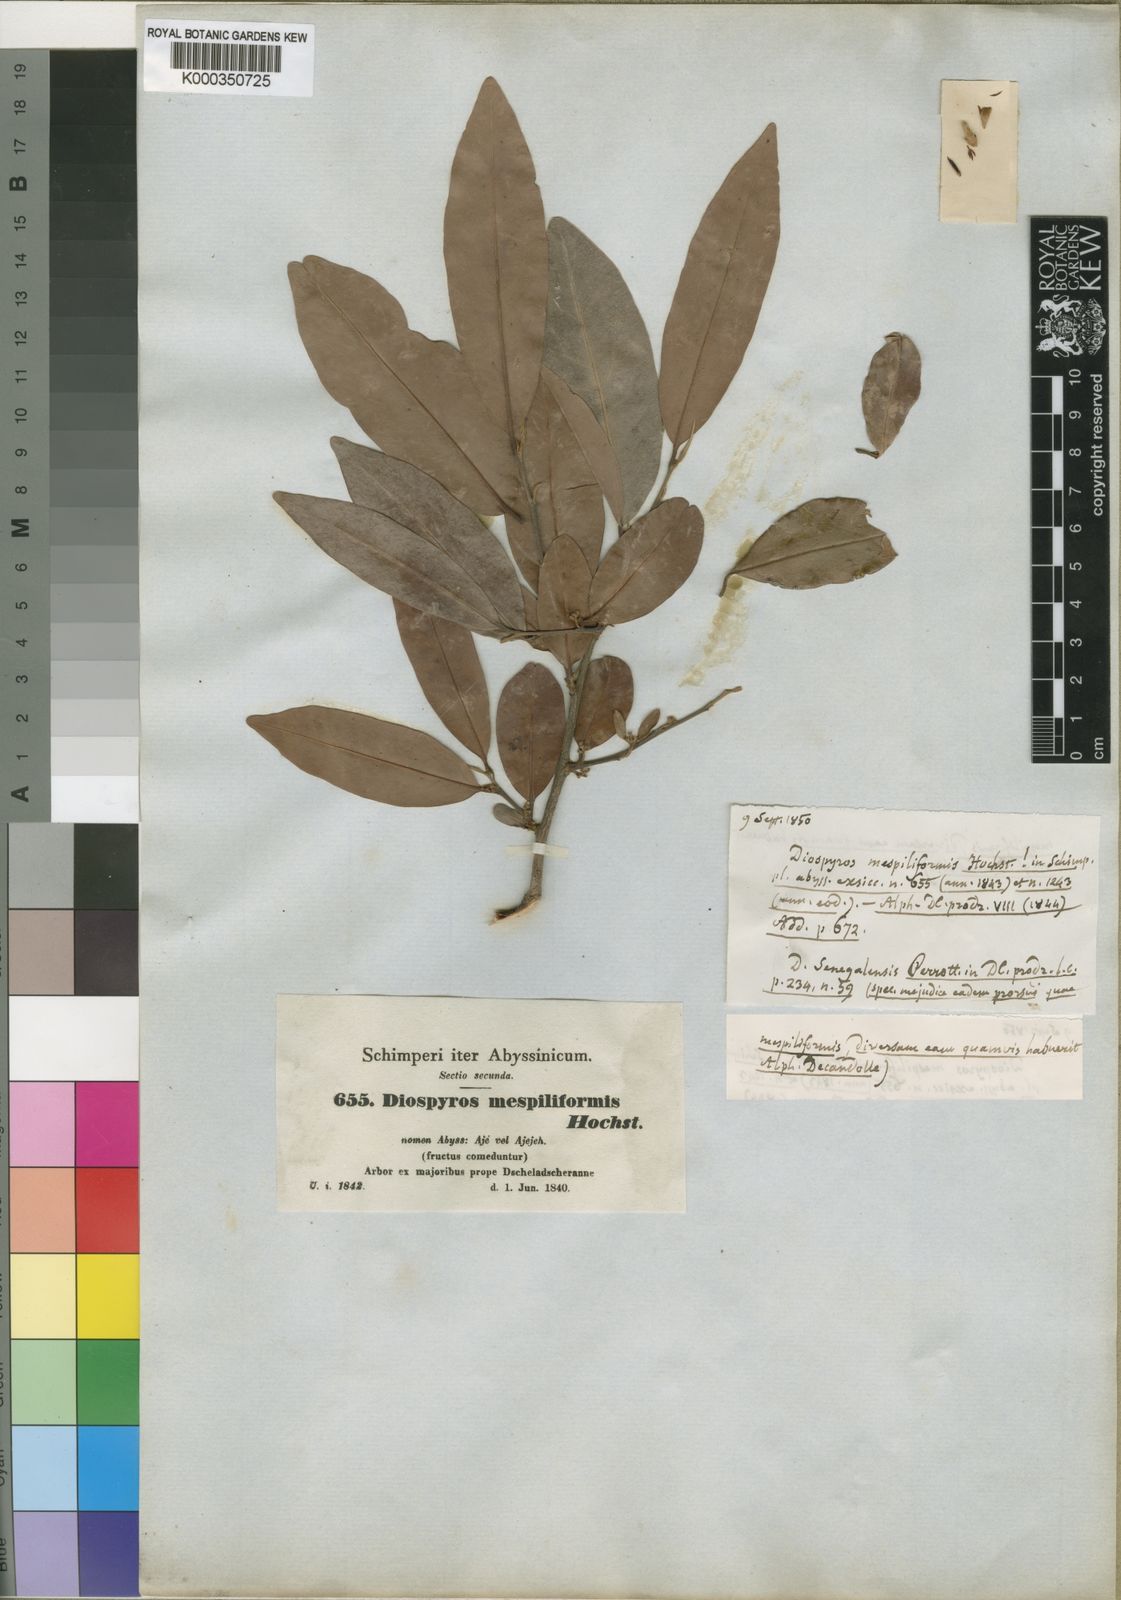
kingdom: Plantae
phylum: Tracheophyta
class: Magnoliopsida
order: Ericales
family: Ebenaceae
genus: Diospyros
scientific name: Diospyros mespiliformis
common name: Ebony diospyros
